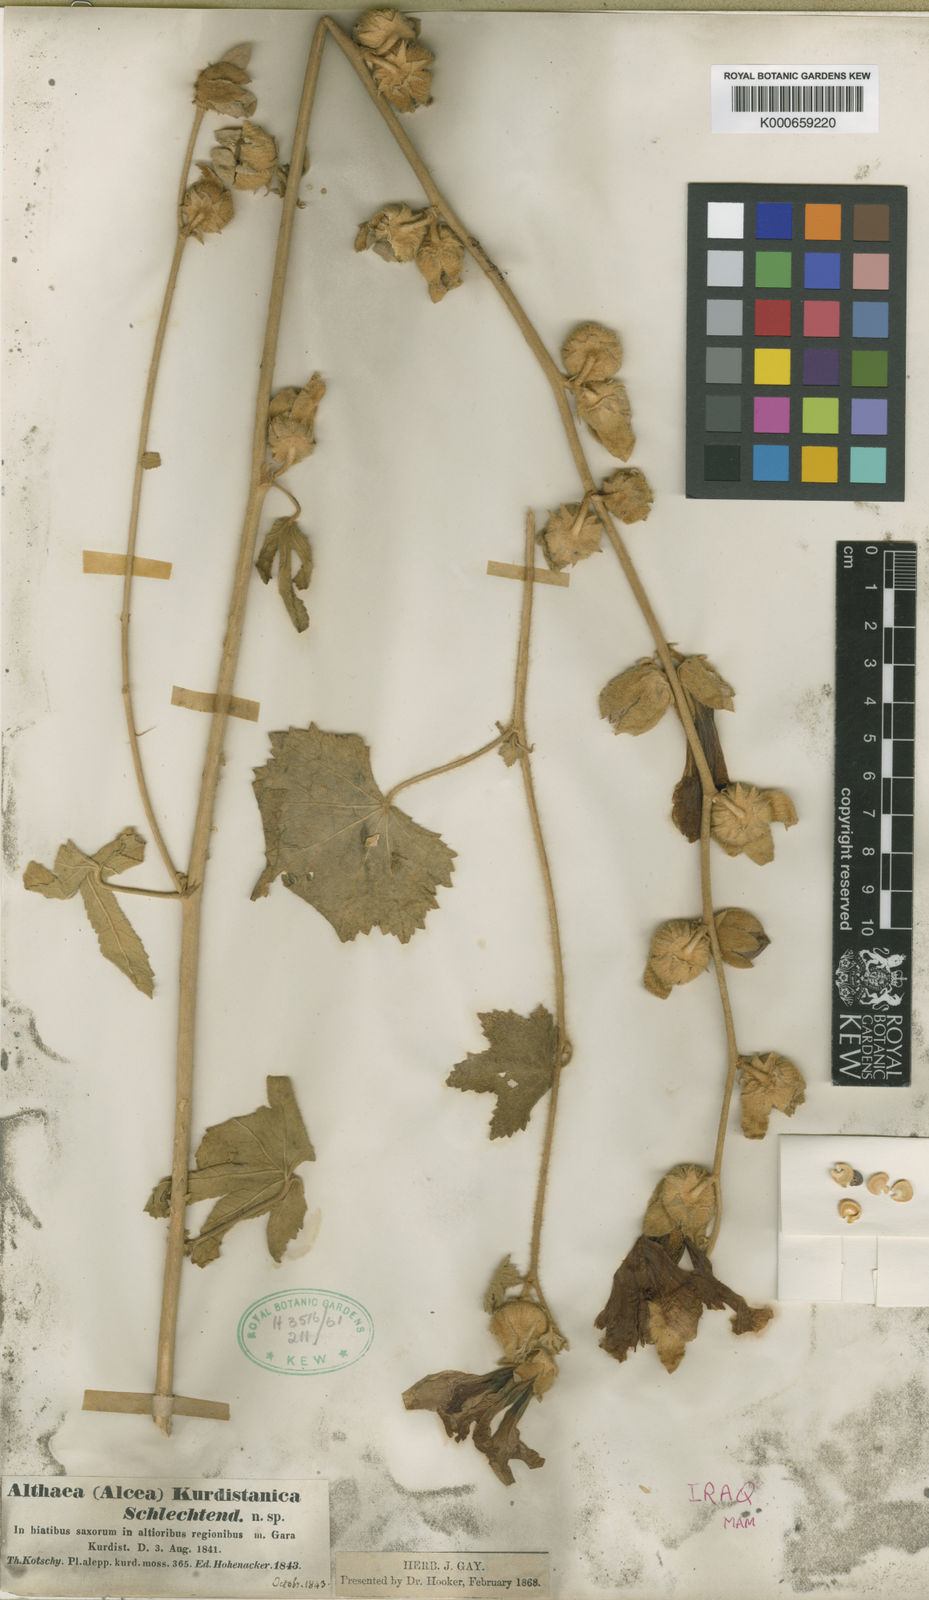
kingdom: Plantae
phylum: Tracheophyta
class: Magnoliopsida
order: Malvales
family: Malvaceae
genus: Alcea
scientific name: Alcea kurdica
